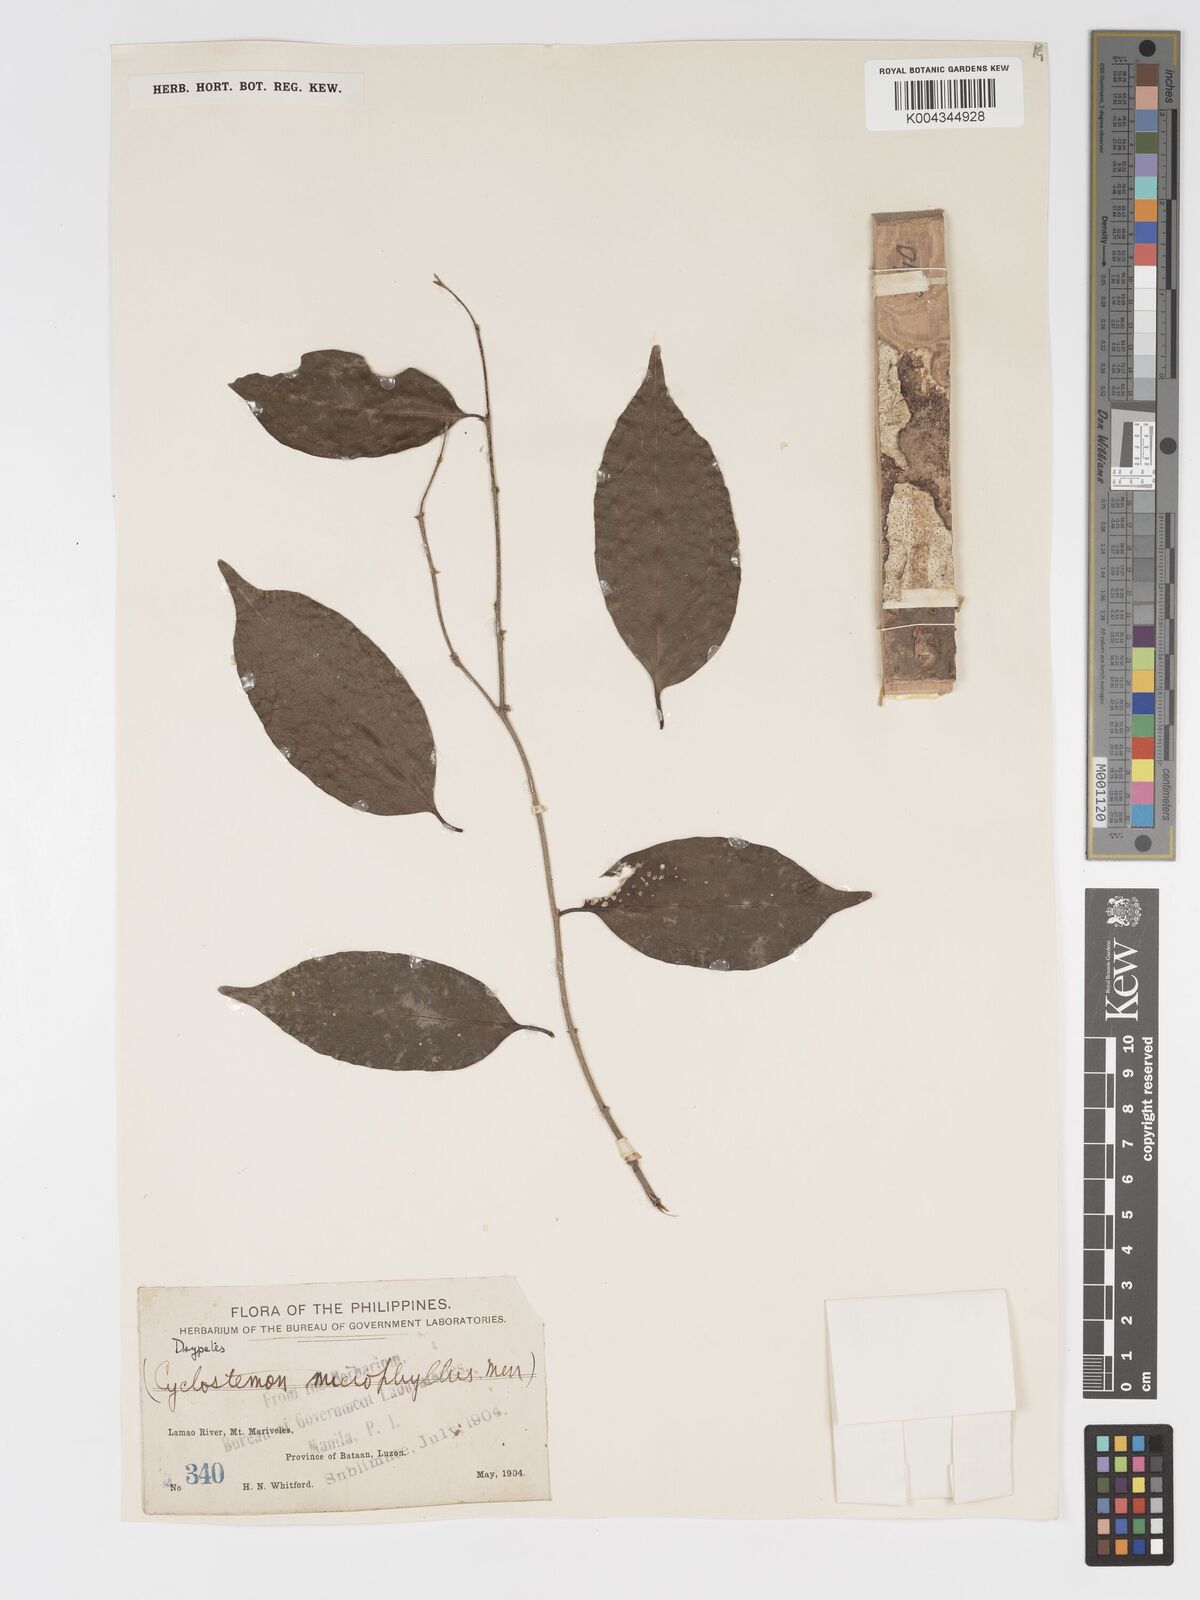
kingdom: Plantae
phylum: Tracheophyta
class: Magnoliopsida
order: Malpighiales
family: Putranjivaceae
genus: Drypetes
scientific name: Drypetes microphylla
